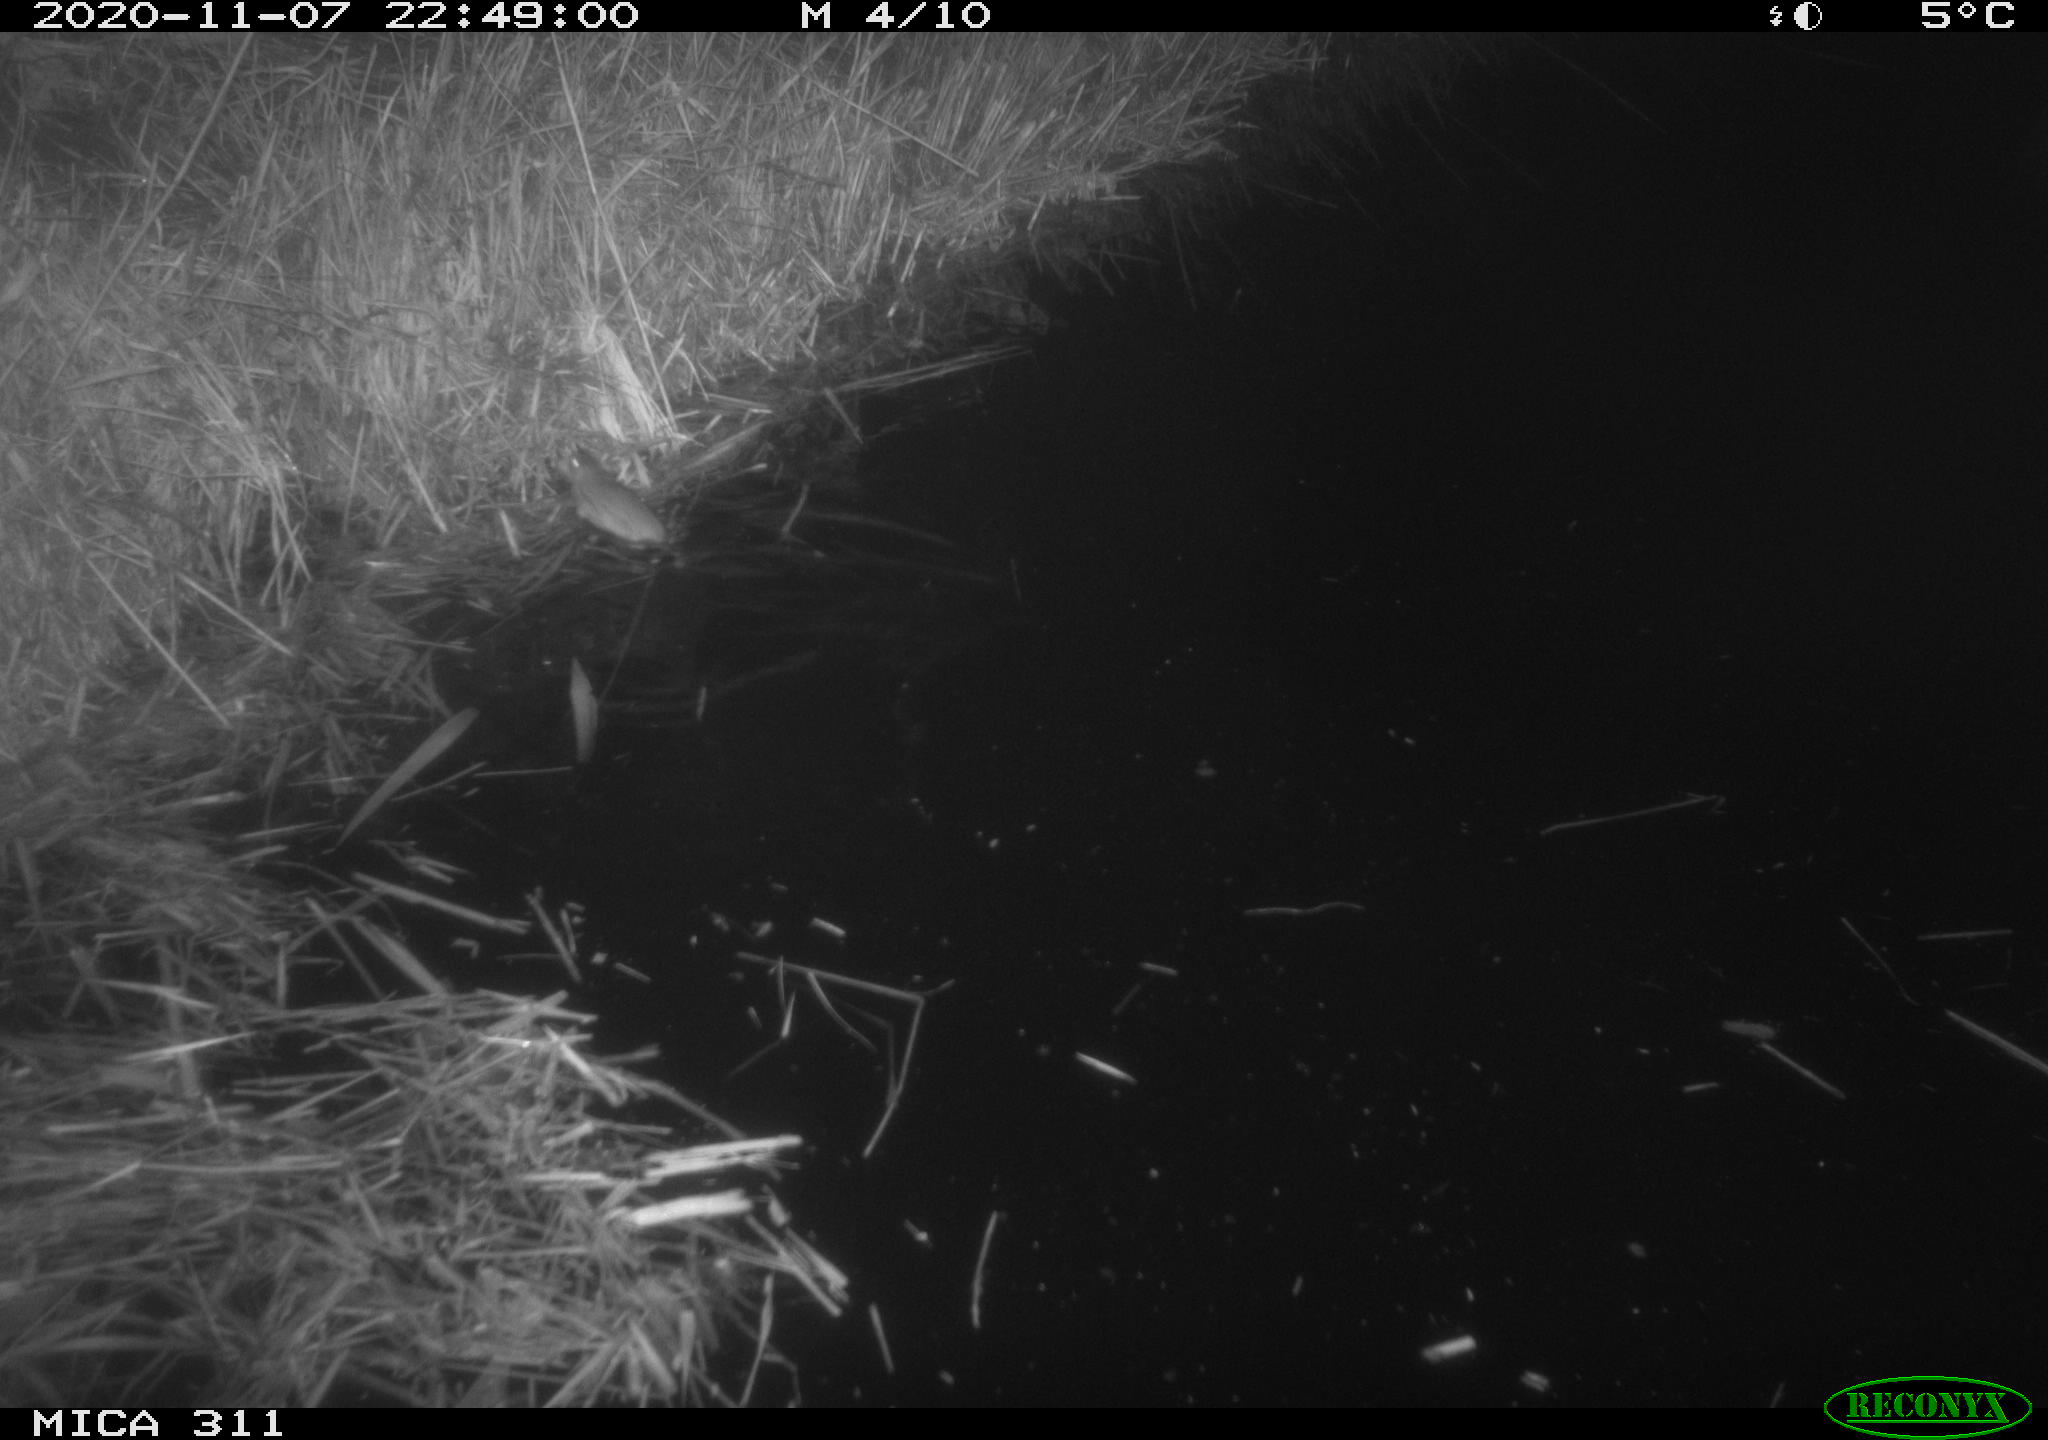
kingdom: Animalia
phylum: Chordata
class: Mammalia
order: Rodentia
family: Muridae
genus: Rattus
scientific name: Rattus norvegicus
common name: Brown rat
